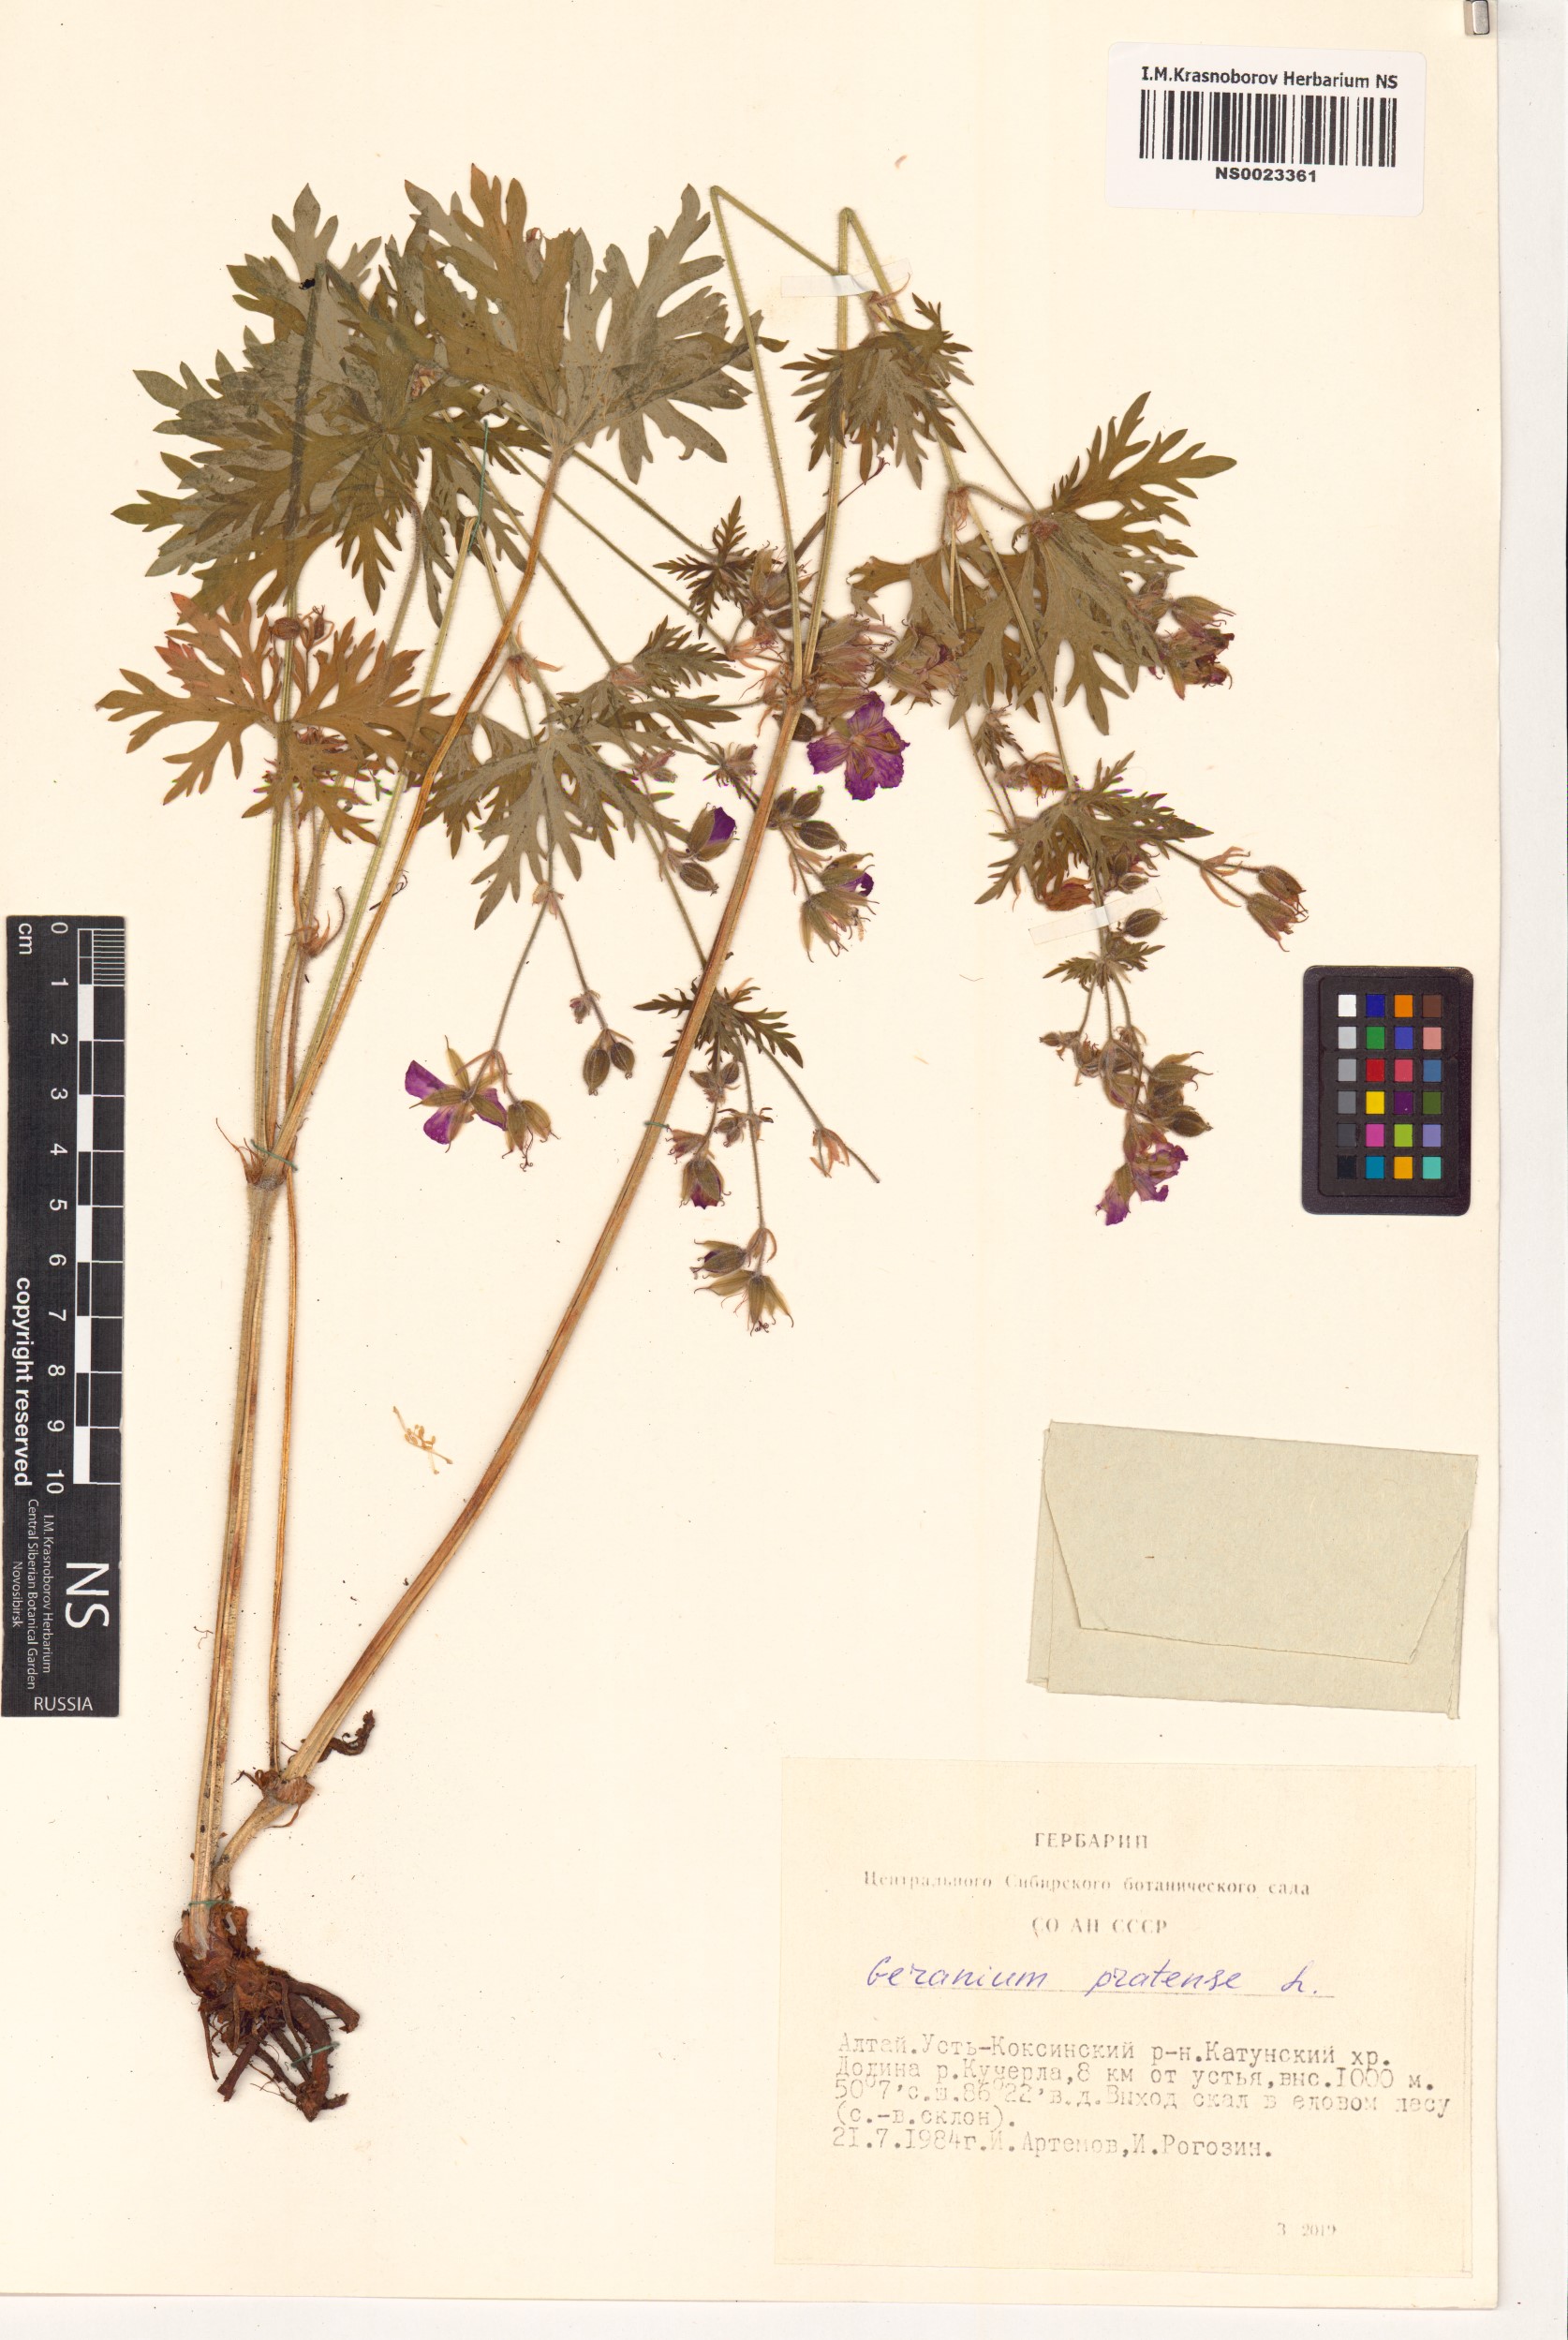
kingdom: Plantae
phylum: Tracheophyta
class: Magnoliopsida
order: Geraniales
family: Geraniaceae
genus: Geranium
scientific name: Geranium pratense
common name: Meadow crane's-bill
